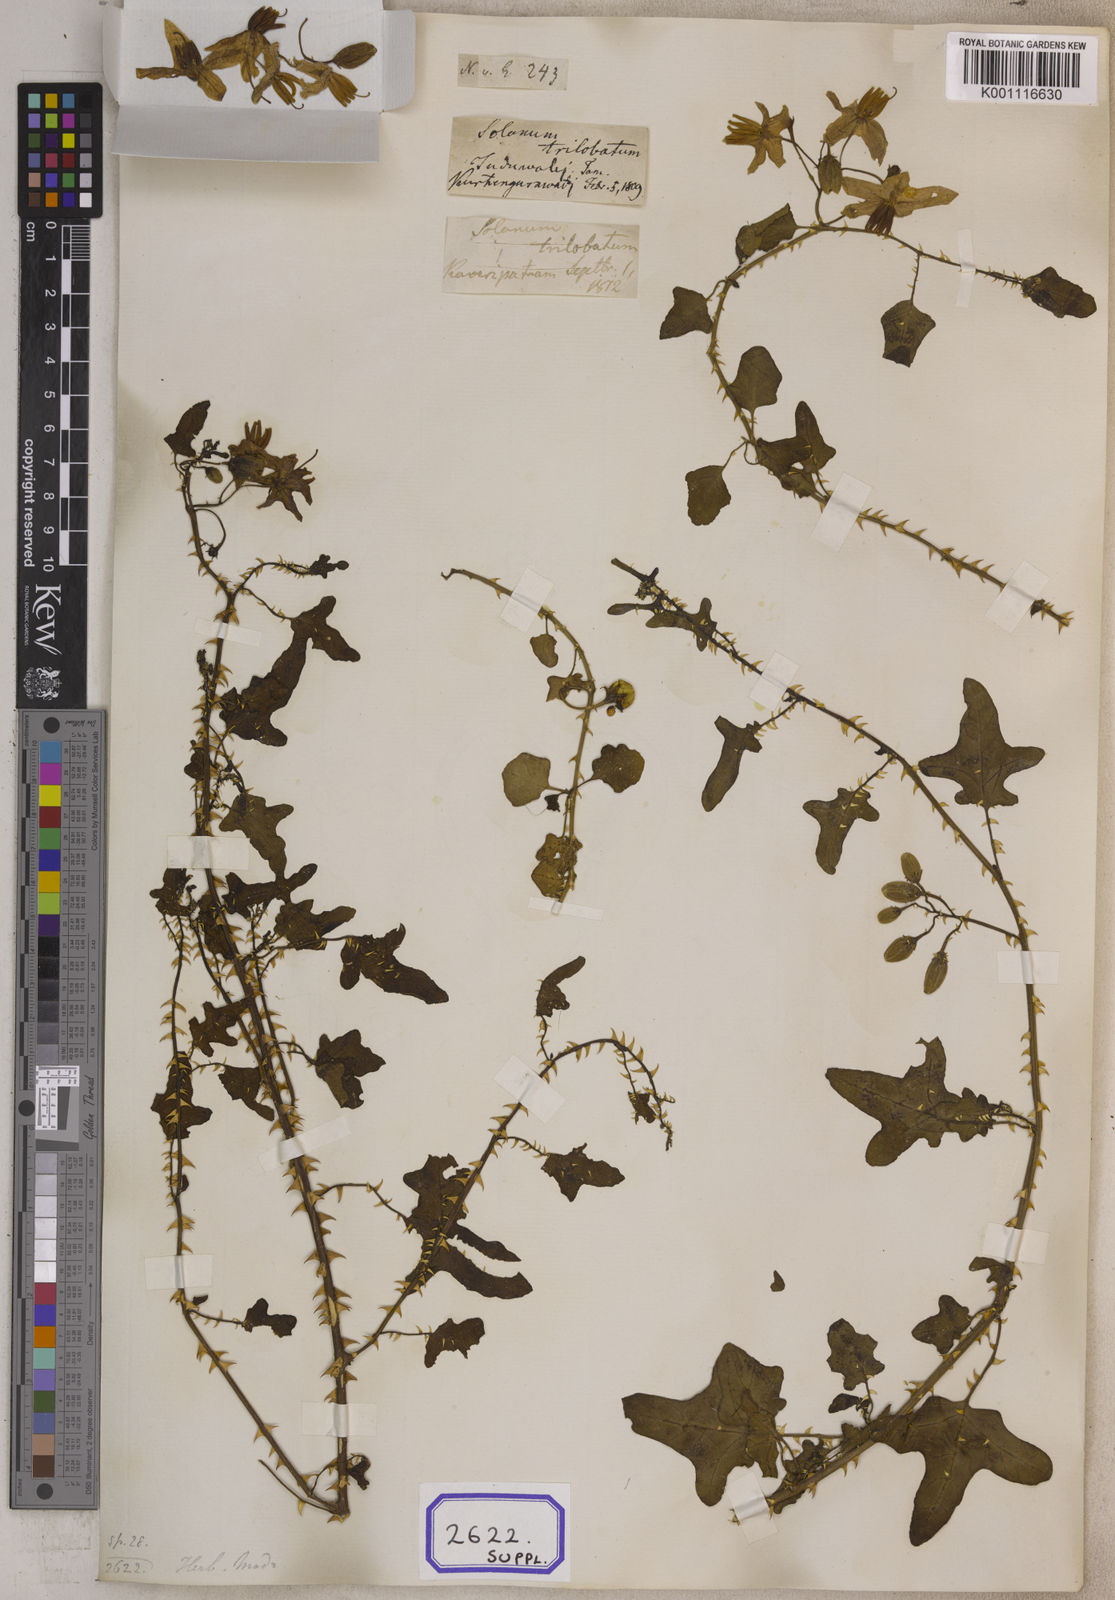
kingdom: Plantae
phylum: Tracheophyta
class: Magnoliopsida
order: Solanales
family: Solanaceae
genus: Solanum
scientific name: Solanum trilobatum
